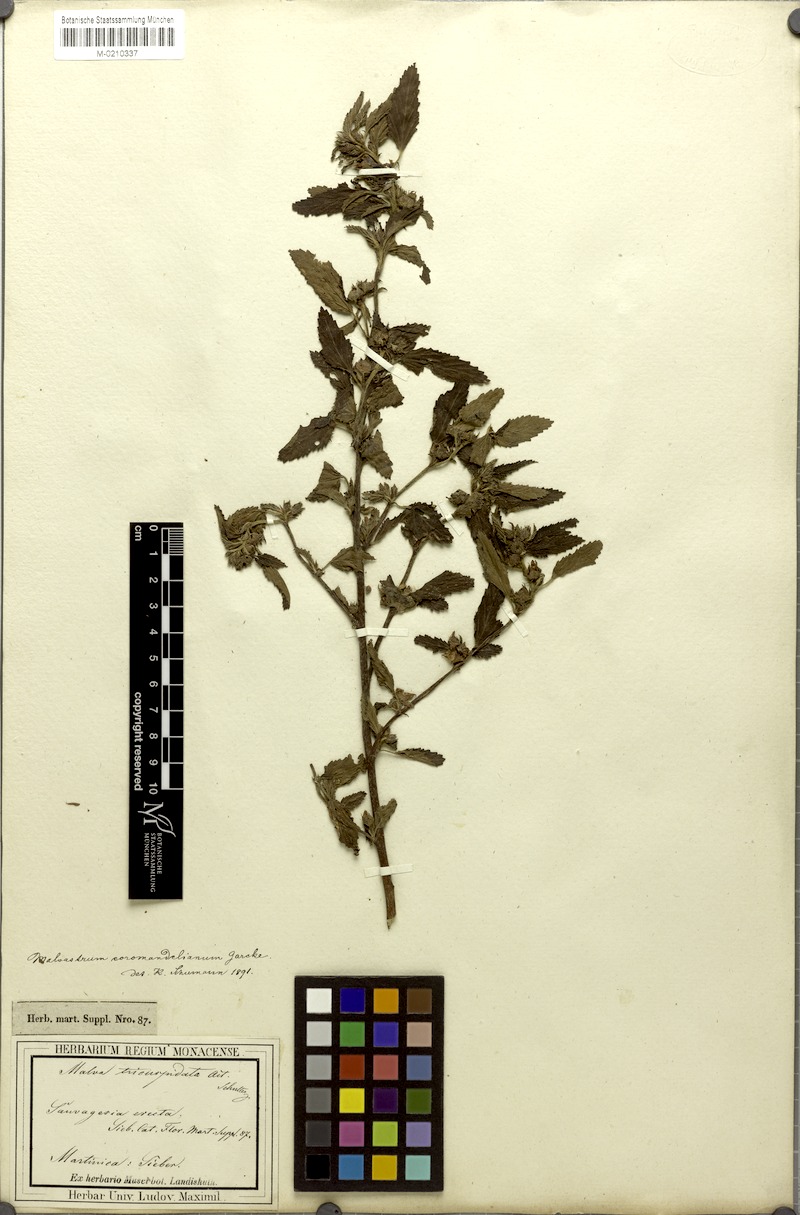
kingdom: Plantae
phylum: Tracheophyta
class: Magnoliopsida
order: Malvales
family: Malvaceae
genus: Malvastrum
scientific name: Malvastrum coromandelianum
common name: Threelobe false mallow
